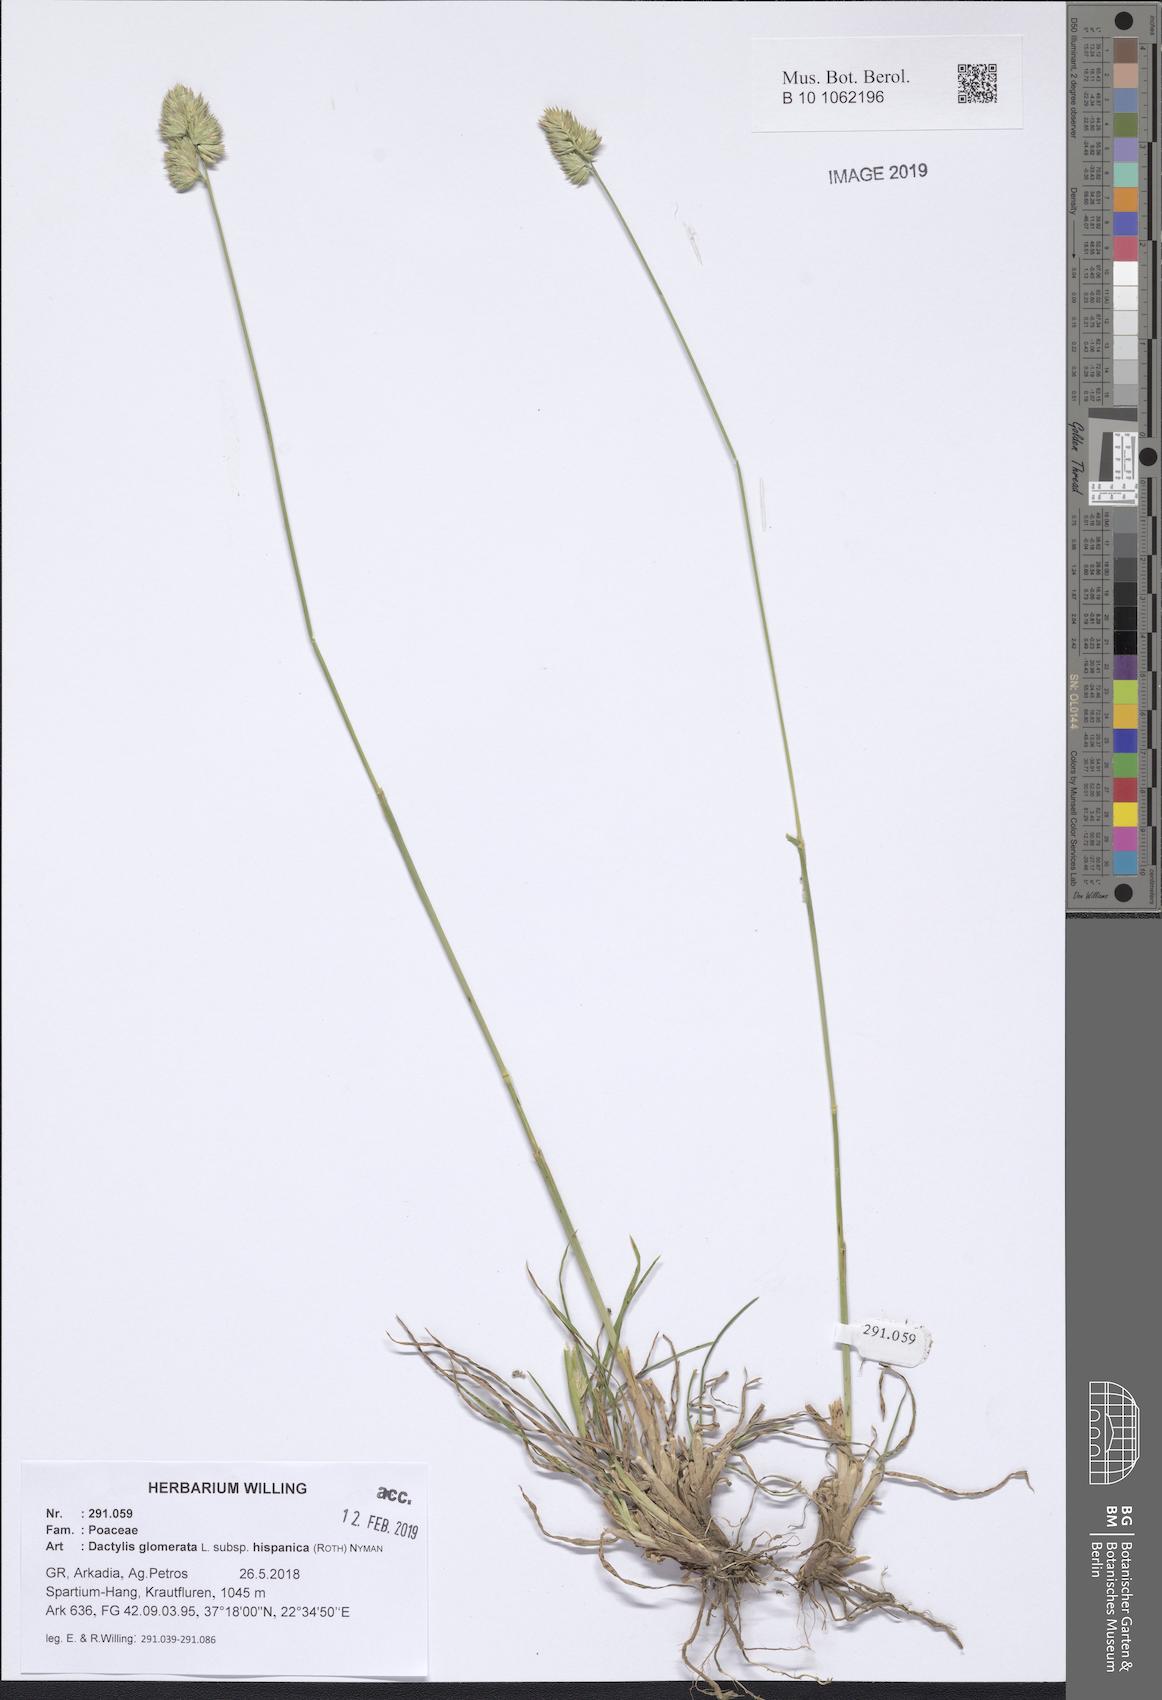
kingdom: Plantae
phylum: Tracheophyta
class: Liliopsida
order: Poales
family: Poaceae
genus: Dactylis
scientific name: Dactylis glomerata
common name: Orchardgrass
